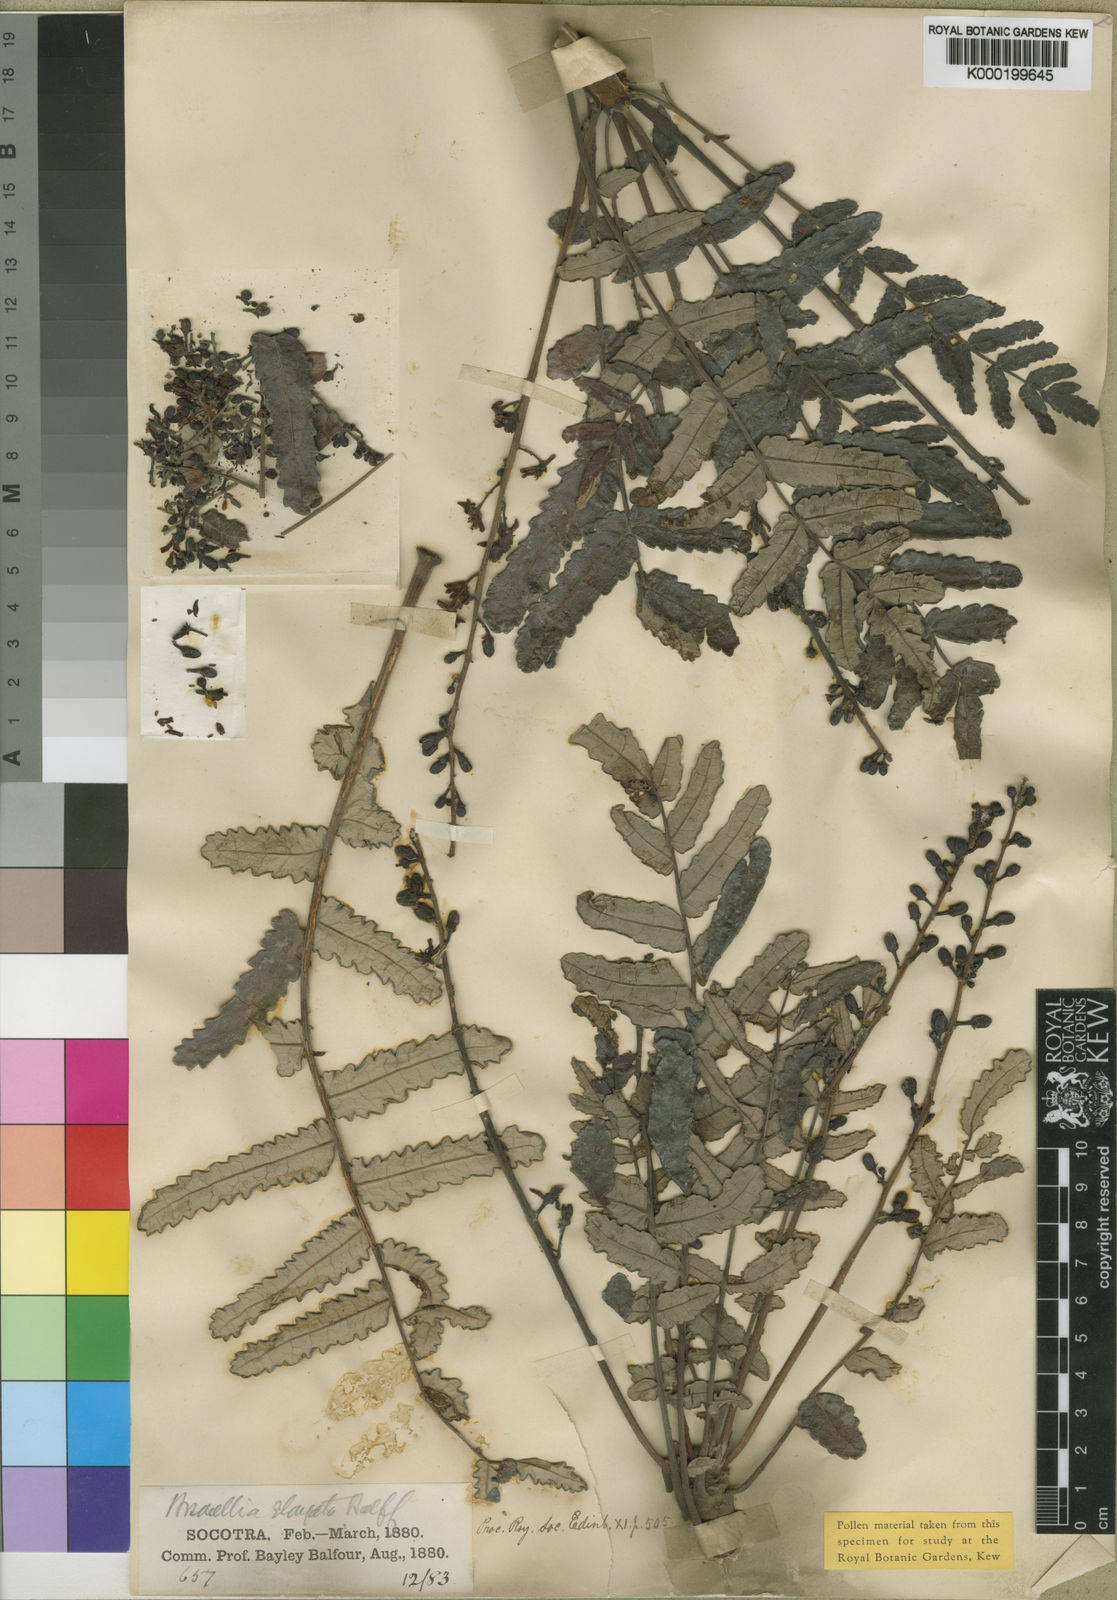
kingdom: Plantae
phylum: Tracheophyta
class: Magnoliopsida
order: Sapindales
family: Burseraceae
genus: Boswellia
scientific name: Boswellia elongata
